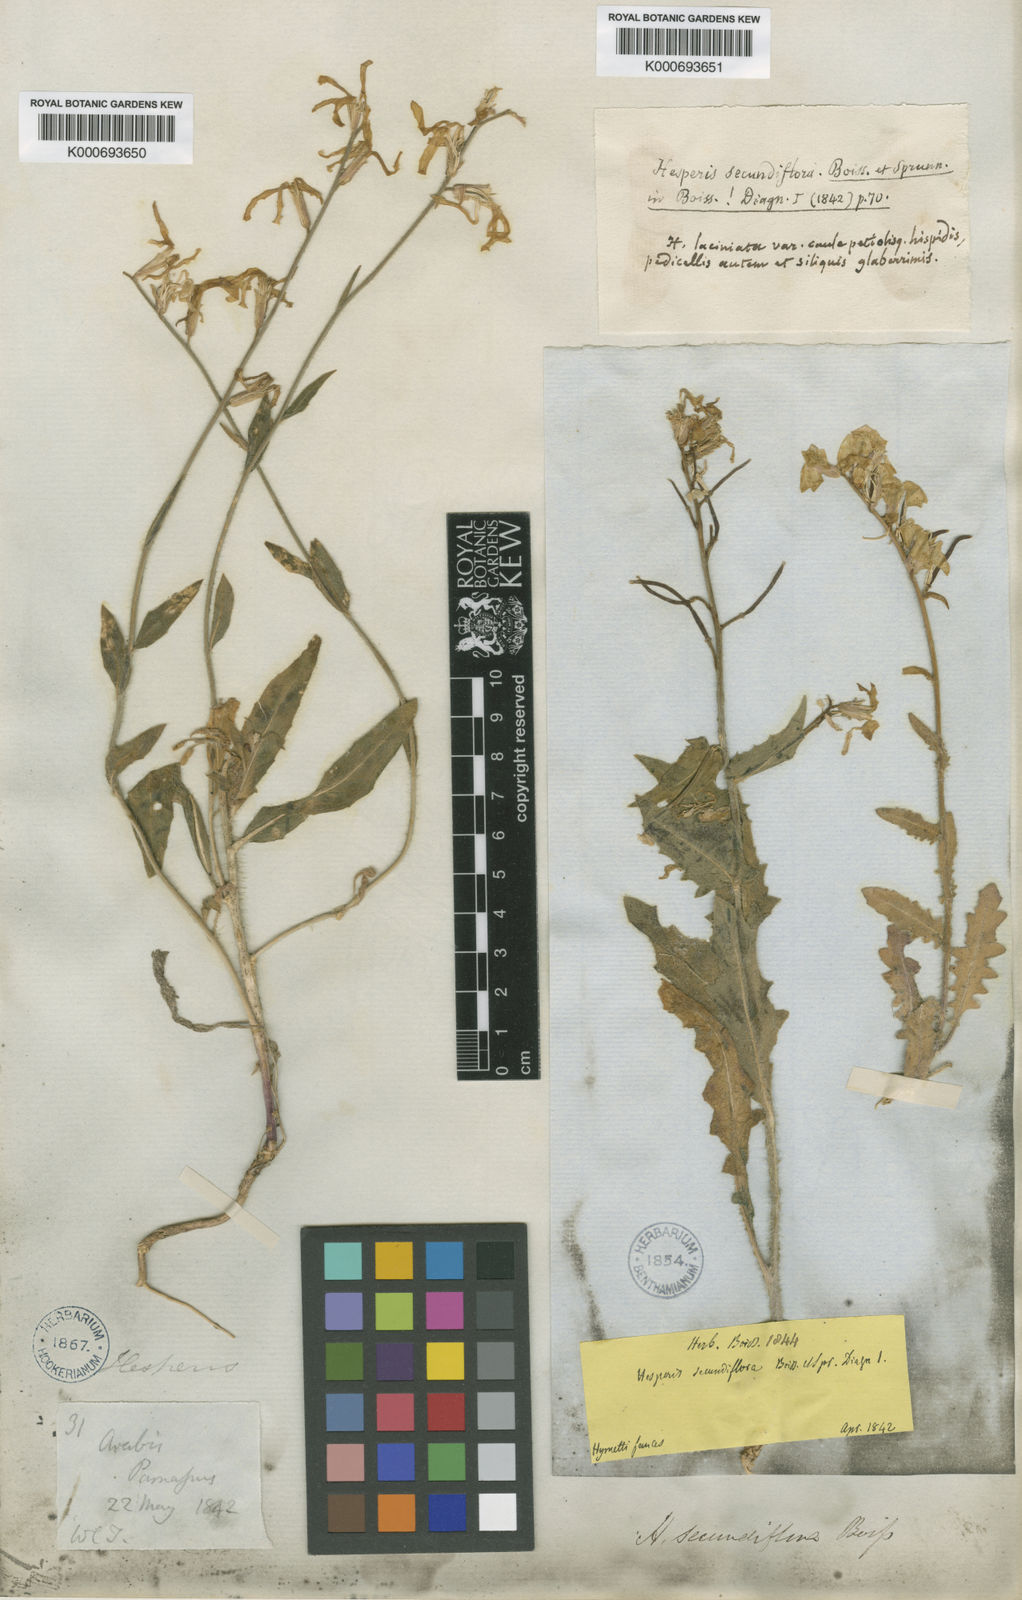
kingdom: Plantae
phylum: Tracheophyta
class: Magnoliopsida
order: Brassicales
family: Brassicaceae
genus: Hesperis
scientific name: Hesperis laciniata
